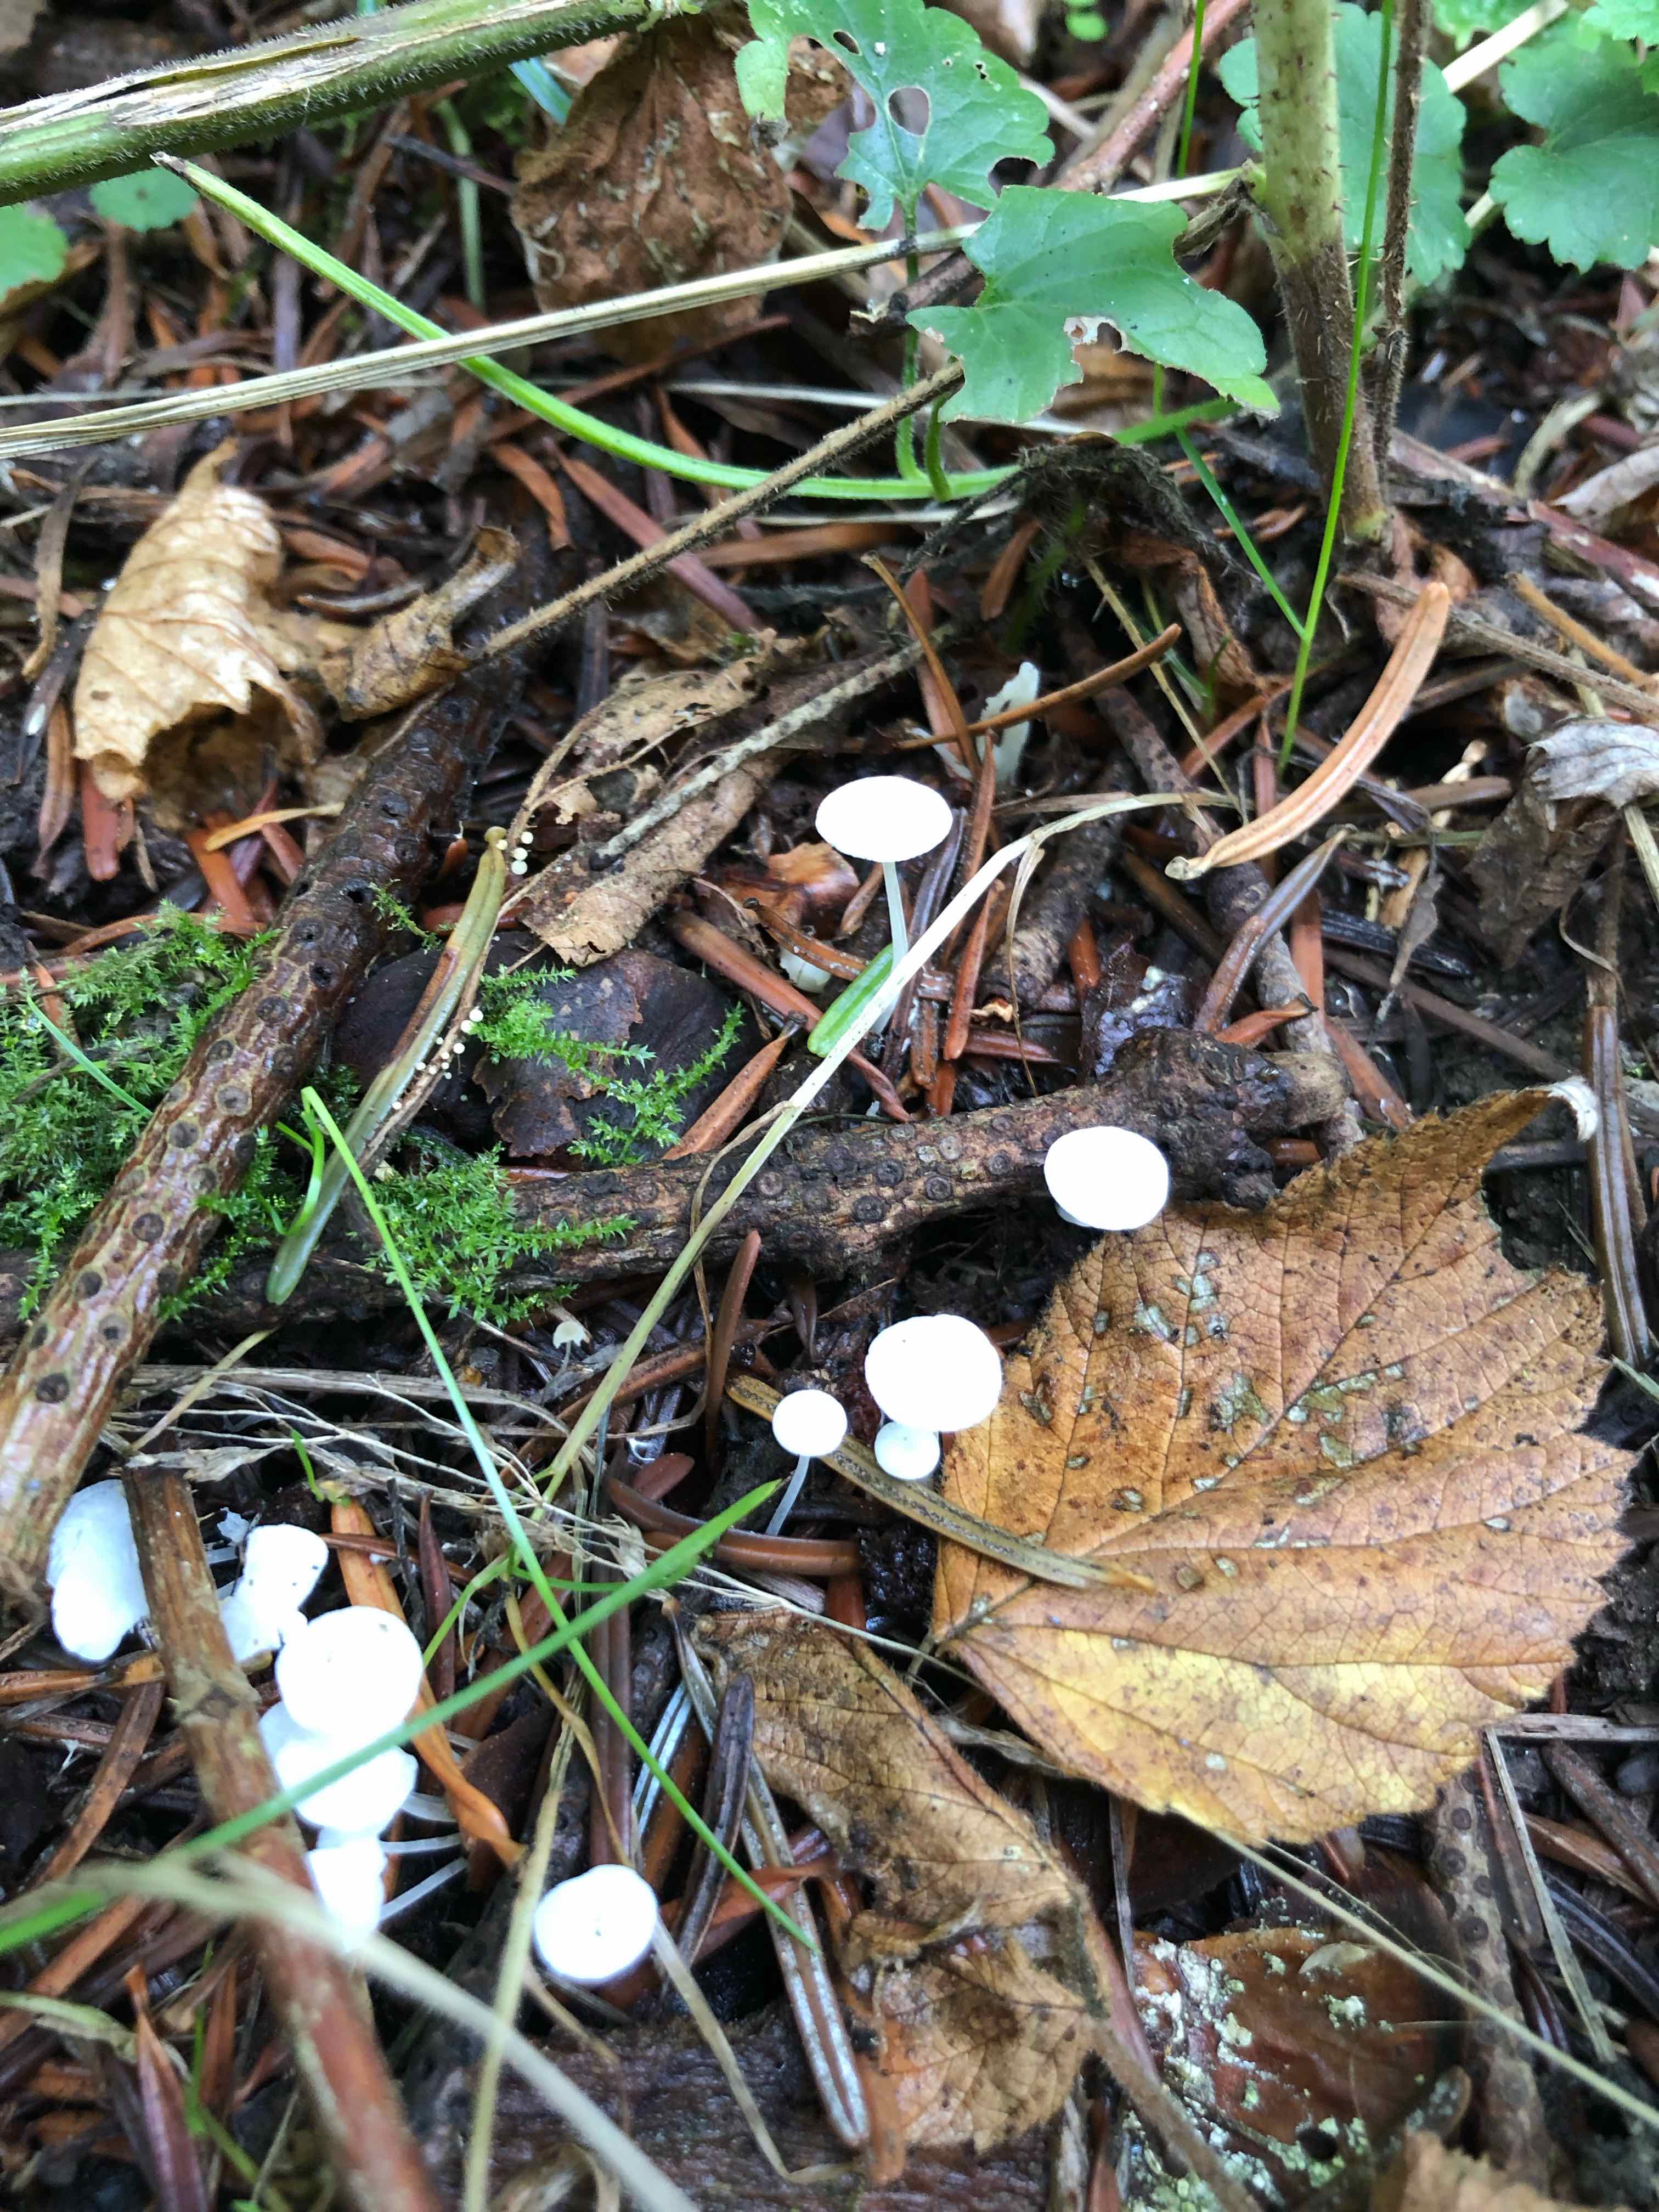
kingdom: Fungi
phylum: Basidiomycota
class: Agaricomycetes
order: Agaricales
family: Mycenaceae
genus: Hemimycena
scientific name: Hemimycena
